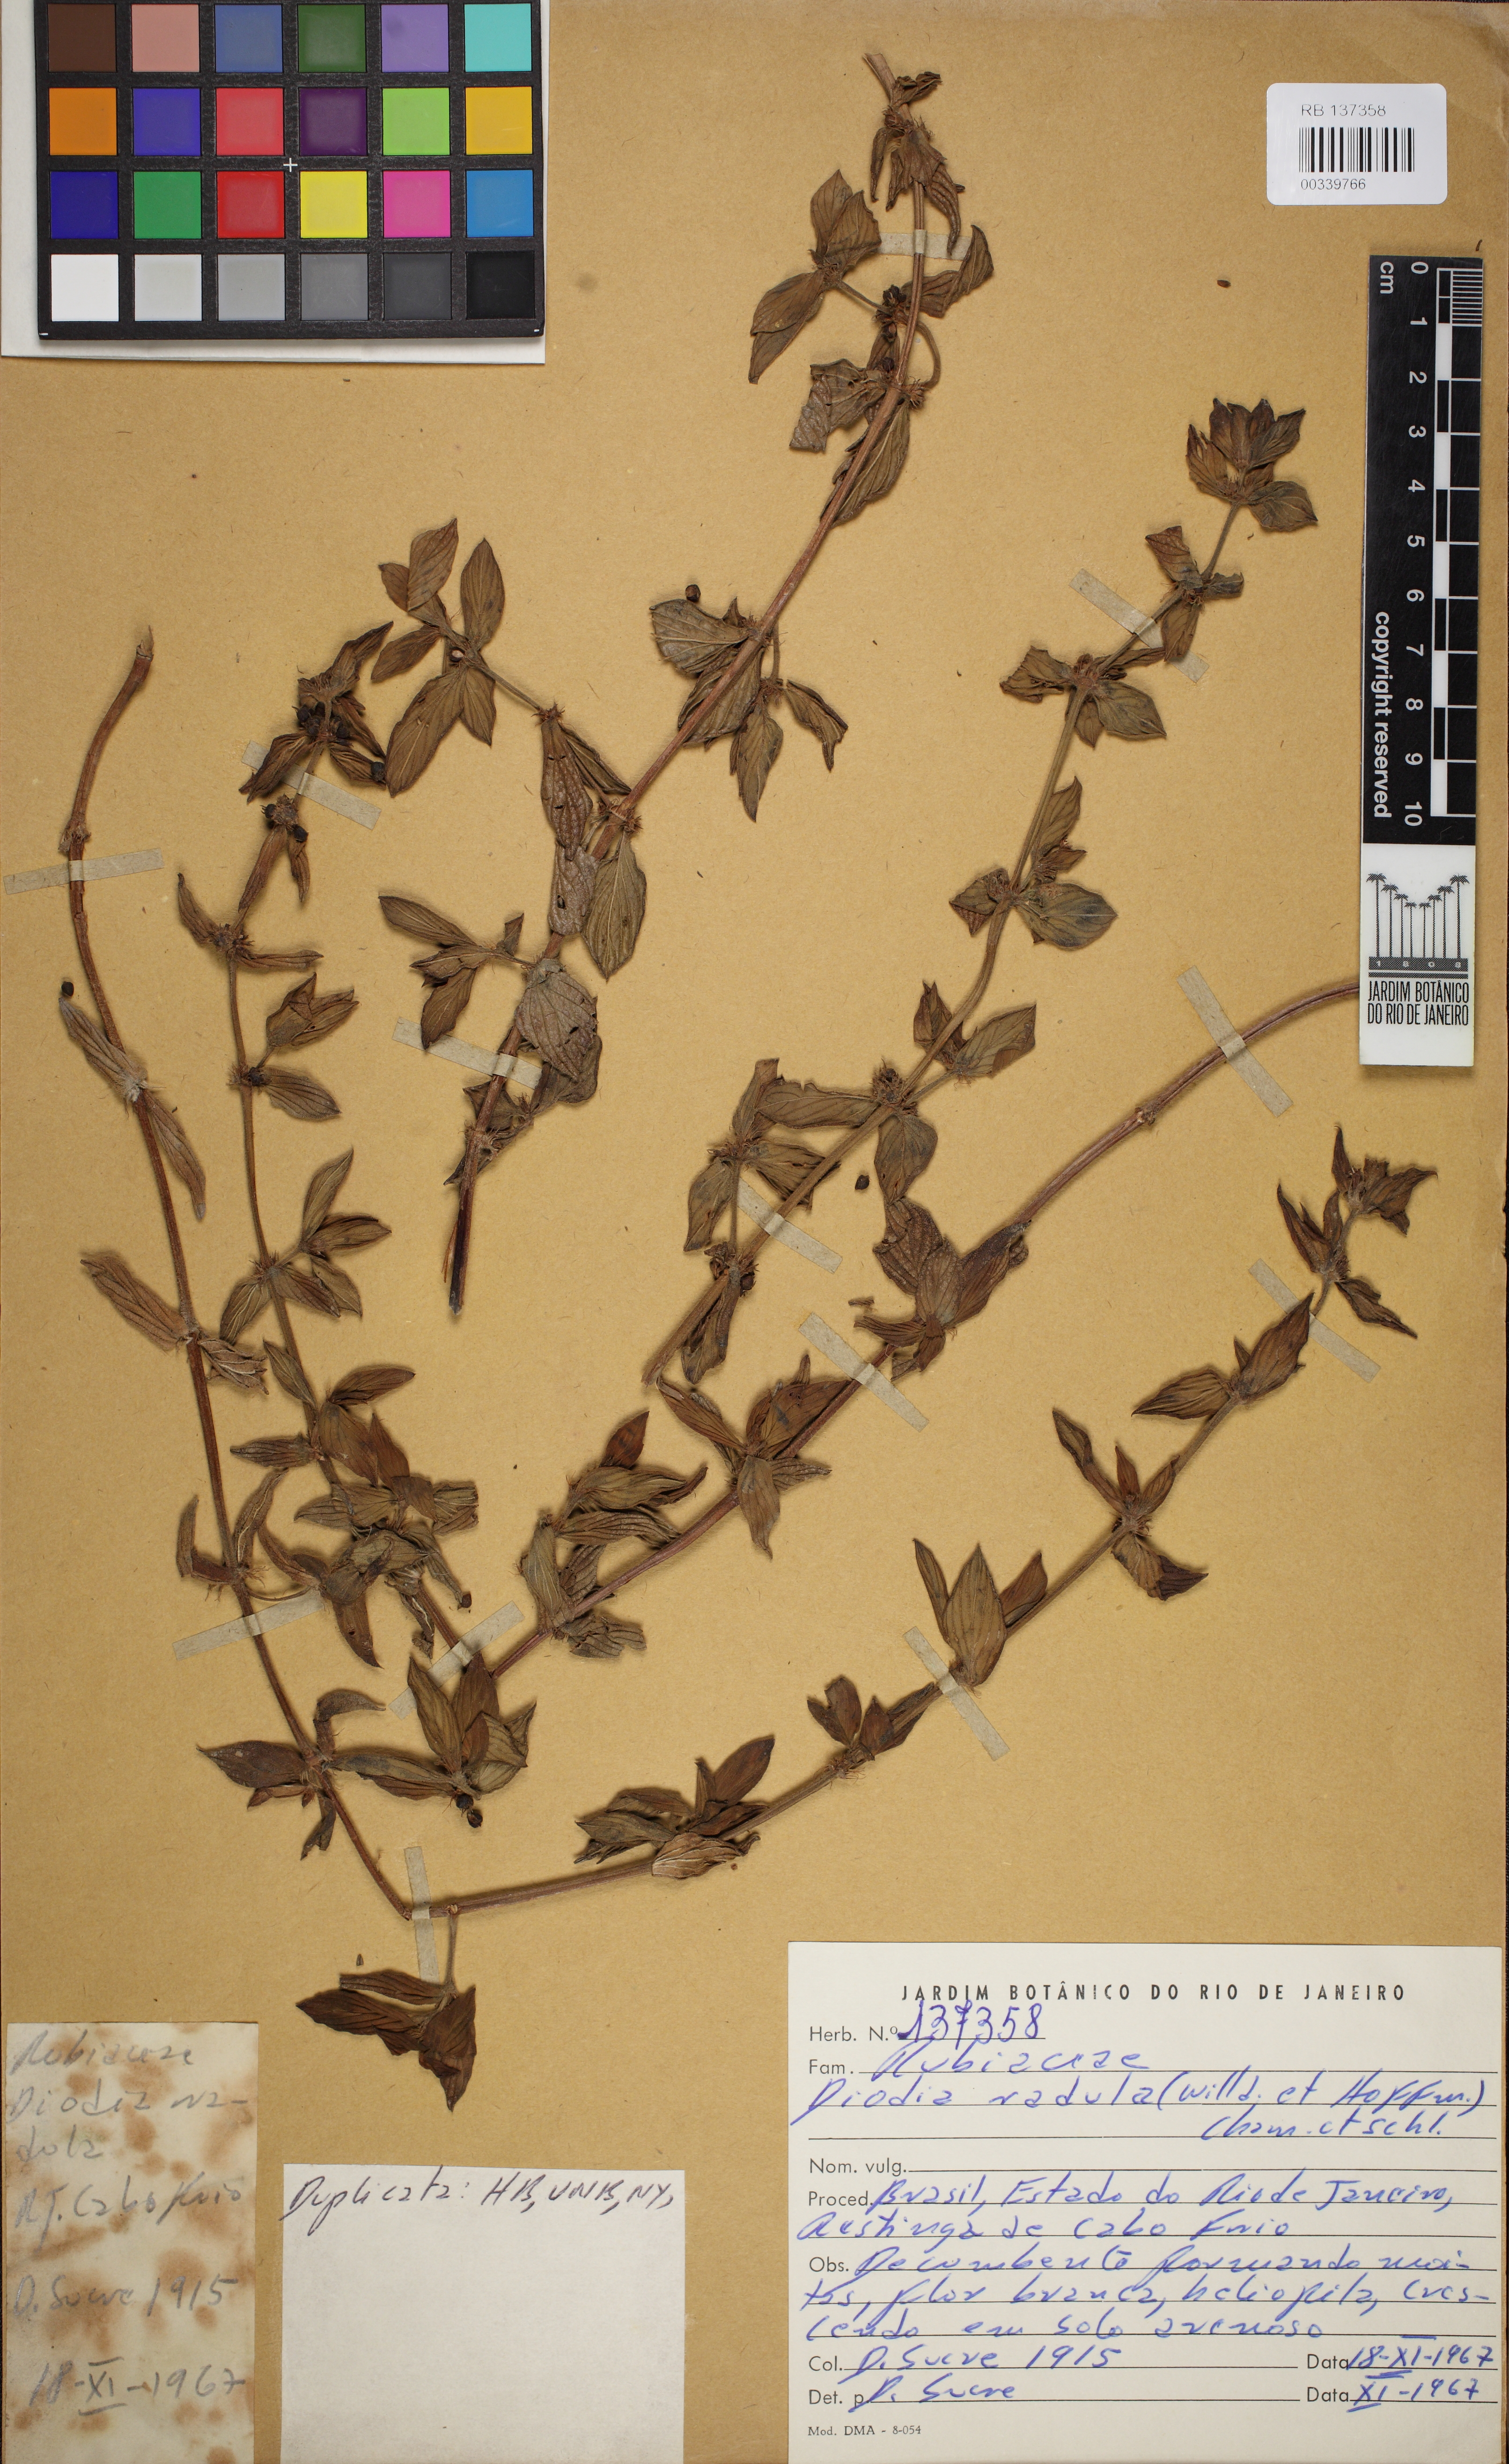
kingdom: Plantae
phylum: Tracheophyta
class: Magnoliopsida
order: Gentianales
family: Rubiaceae
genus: Hexasepalum
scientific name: Hexasepalum radulum
